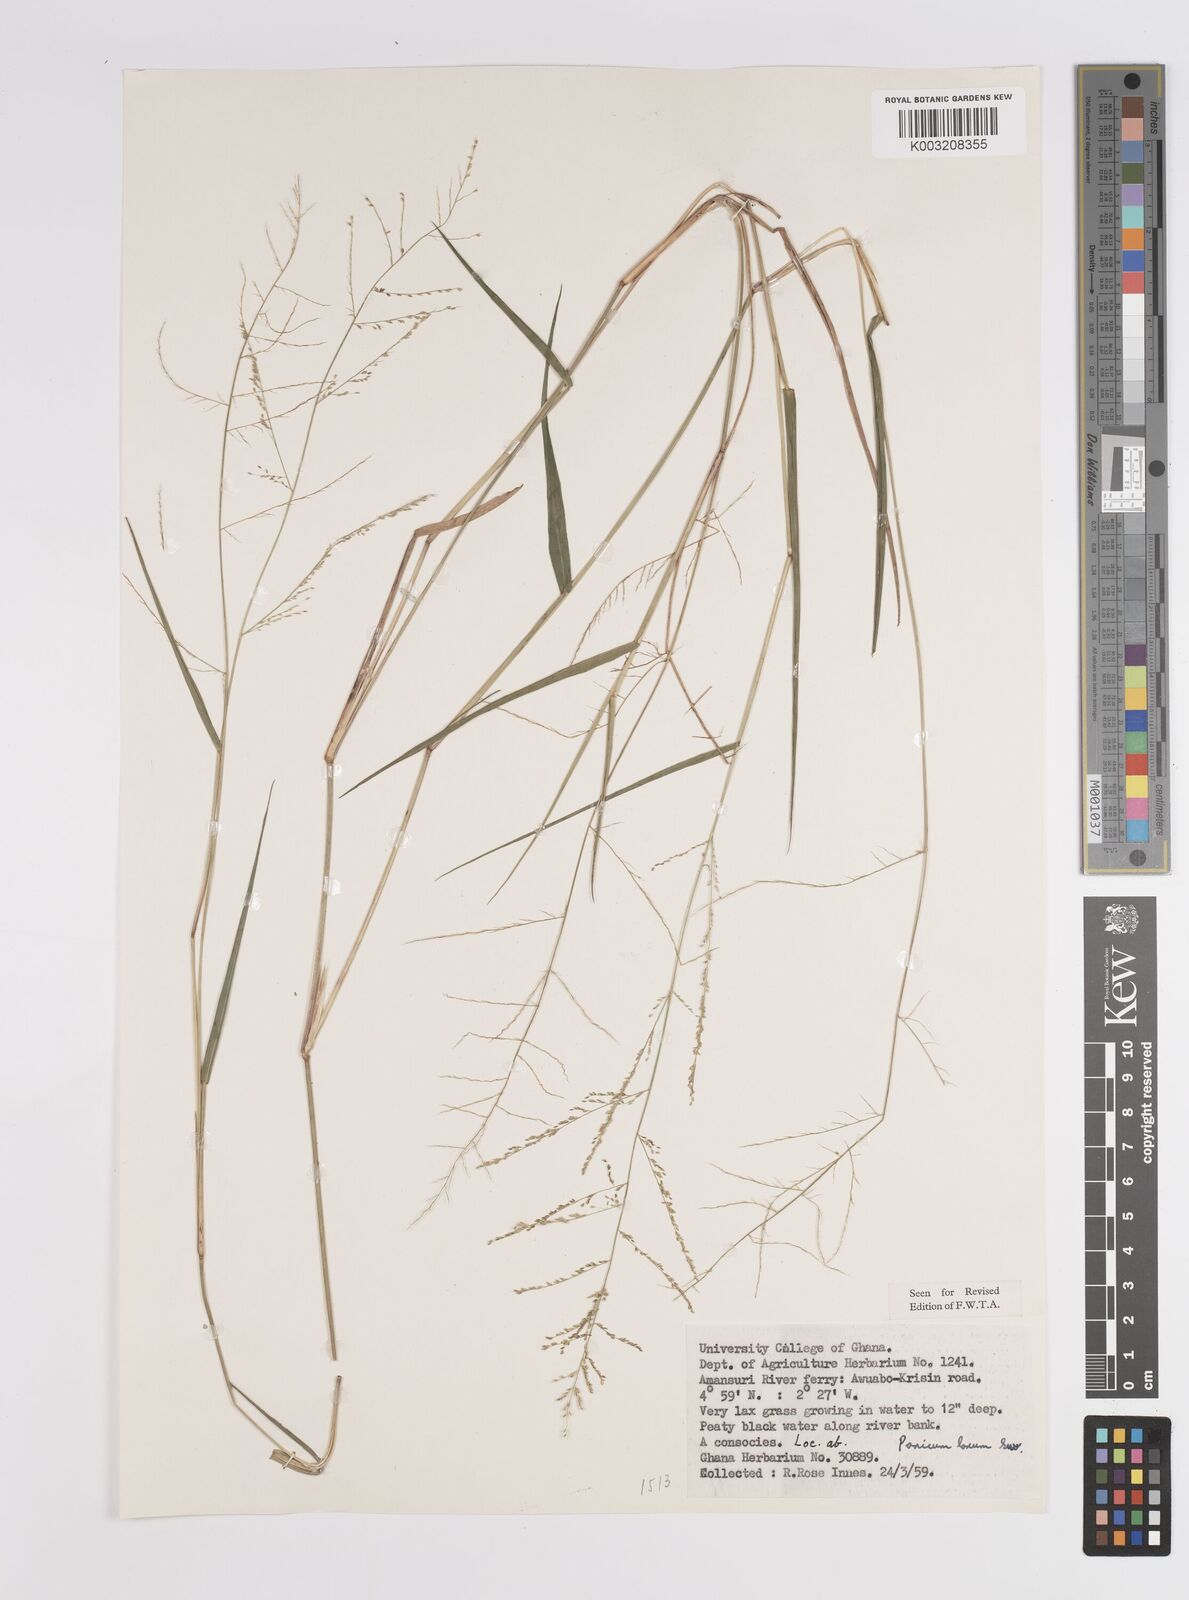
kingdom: Plantae
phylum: Tracheophyta
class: Liliopsida
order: Poales
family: Poaceae
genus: Steinchisma
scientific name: Steinchisma laxum
